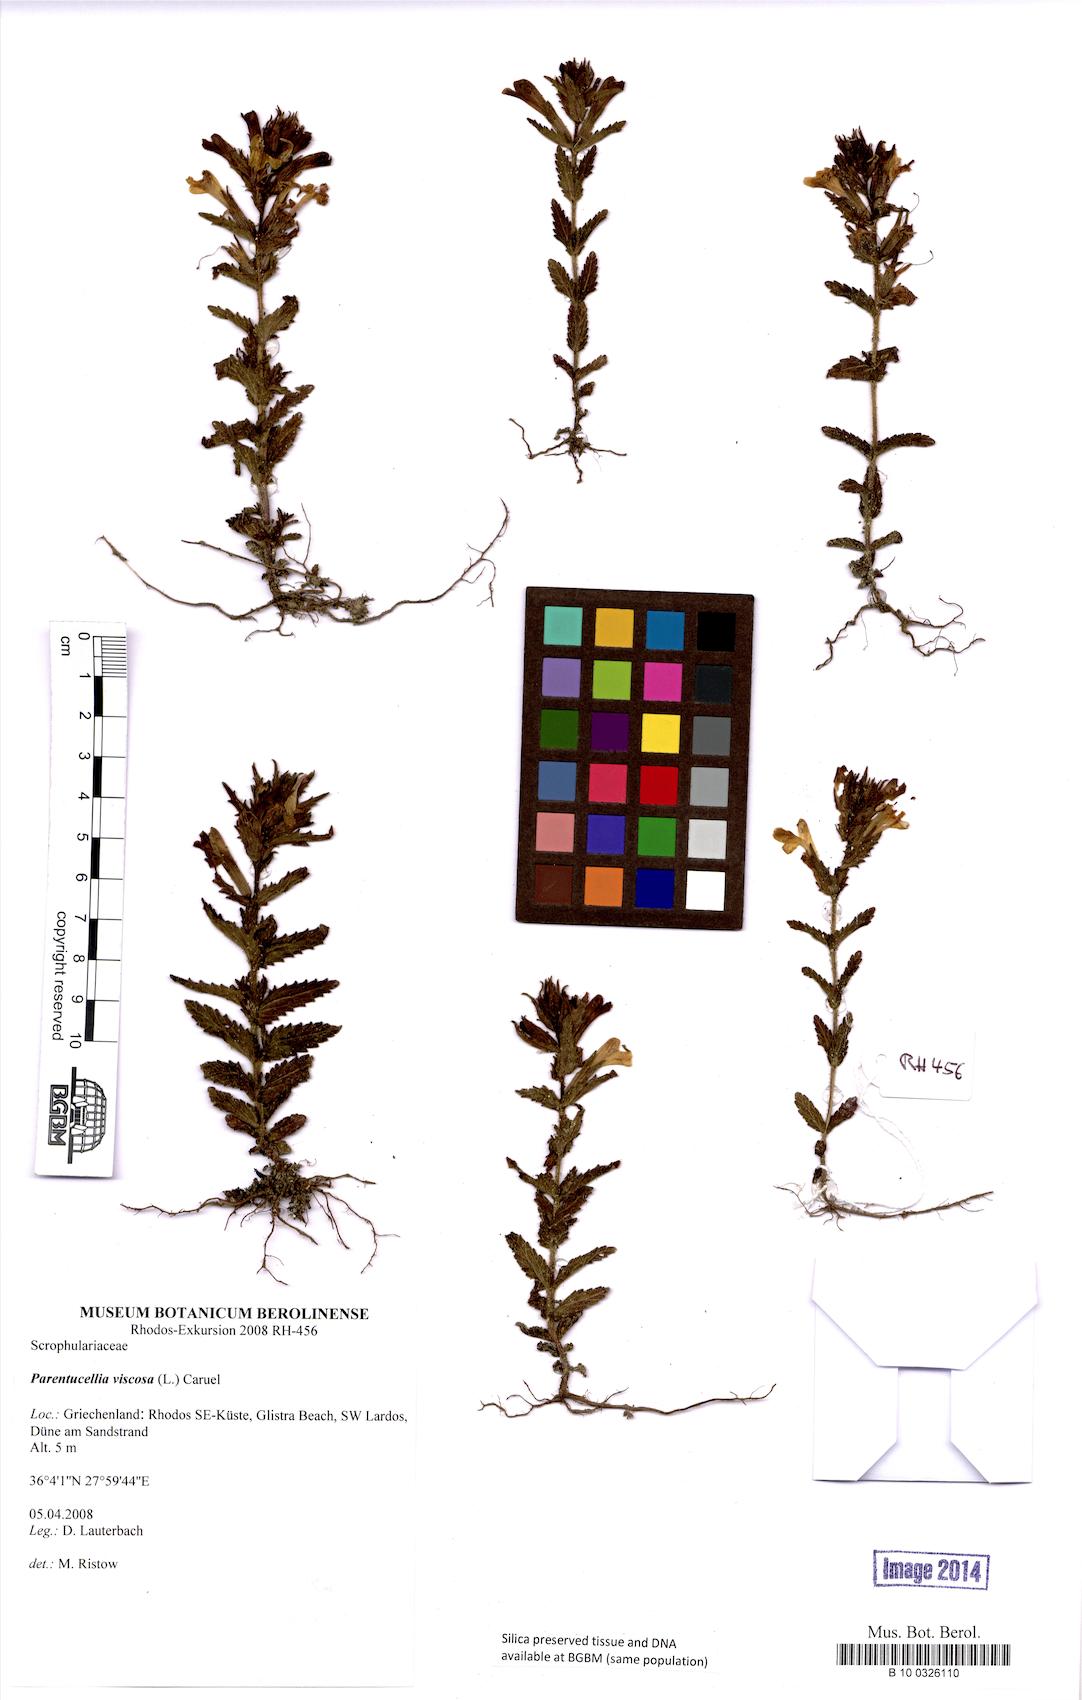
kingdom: Plantae
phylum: Tracheophyta
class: Magnoliopsida
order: Lamiales
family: Orobanchaceae
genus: Bellardia
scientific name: Bellardia viscosa
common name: Sticky parentucellia
